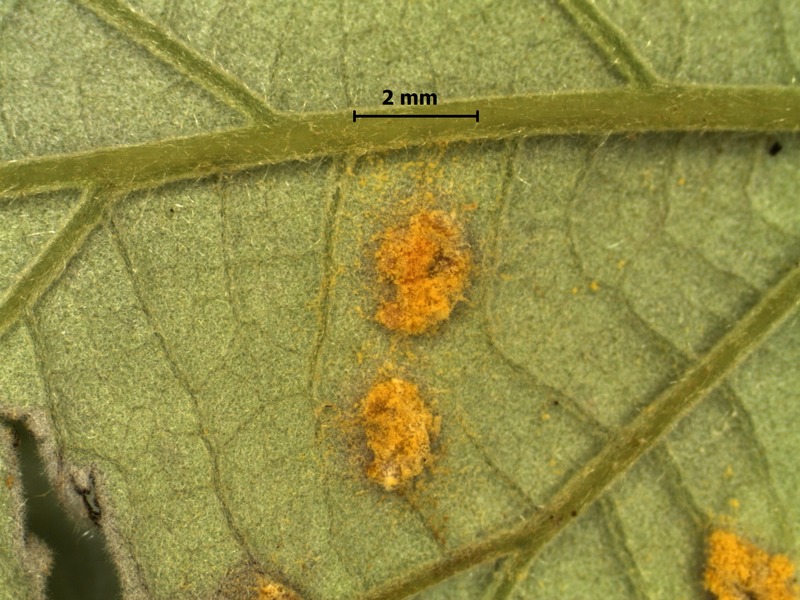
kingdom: Fungi
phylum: Basidiomycota
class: Pucciniomycetes
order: Pucciniales
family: Phragmidiaceae
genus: Phragmidium
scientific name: Phragmidium violaceum
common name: Violet bramble rust
